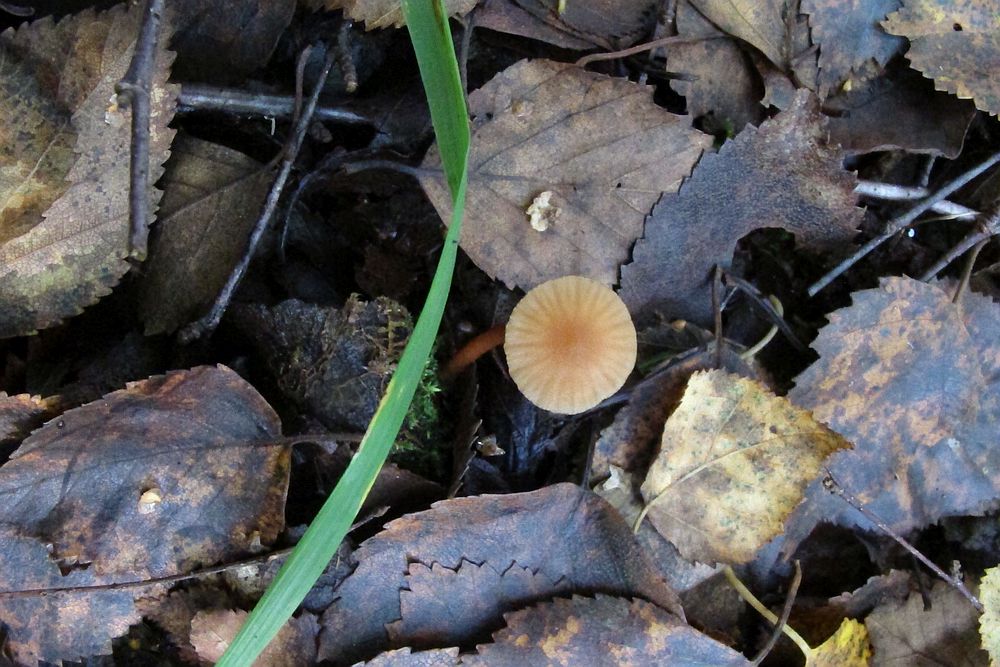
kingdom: Fungi
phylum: Basidiomycota
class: Agaricomycetes
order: Agaricales
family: Hydnangiaceae
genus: Laccaria
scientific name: Laccaria laccata
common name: rød ametysthat
